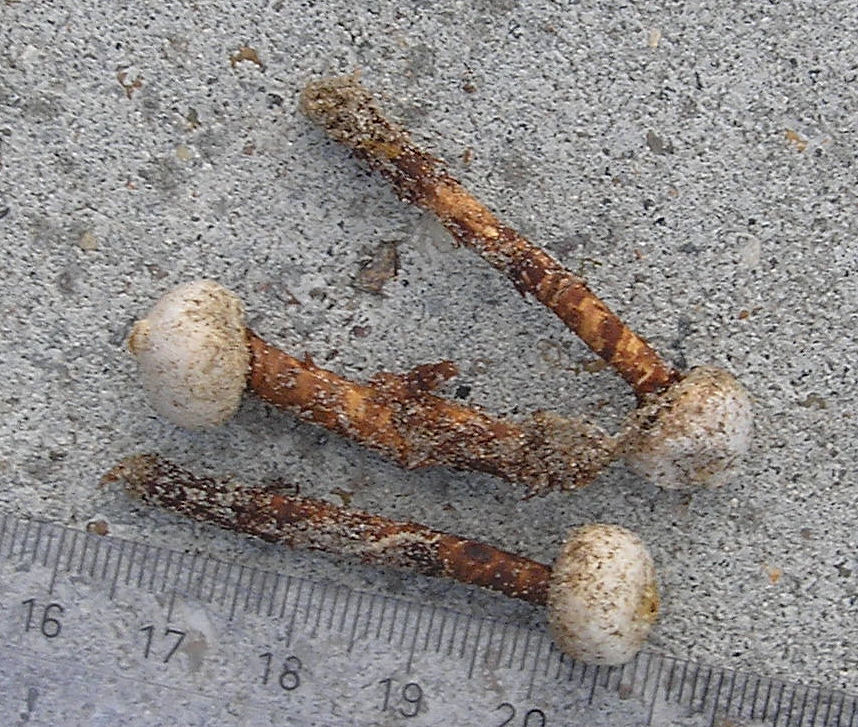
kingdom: Fungi
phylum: Basidiomycota
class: Agaricomycetes
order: Agaricales
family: Agaricaceae
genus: Tulostoma
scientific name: Tulostoma fimbriatum
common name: frynset stilkbovist
